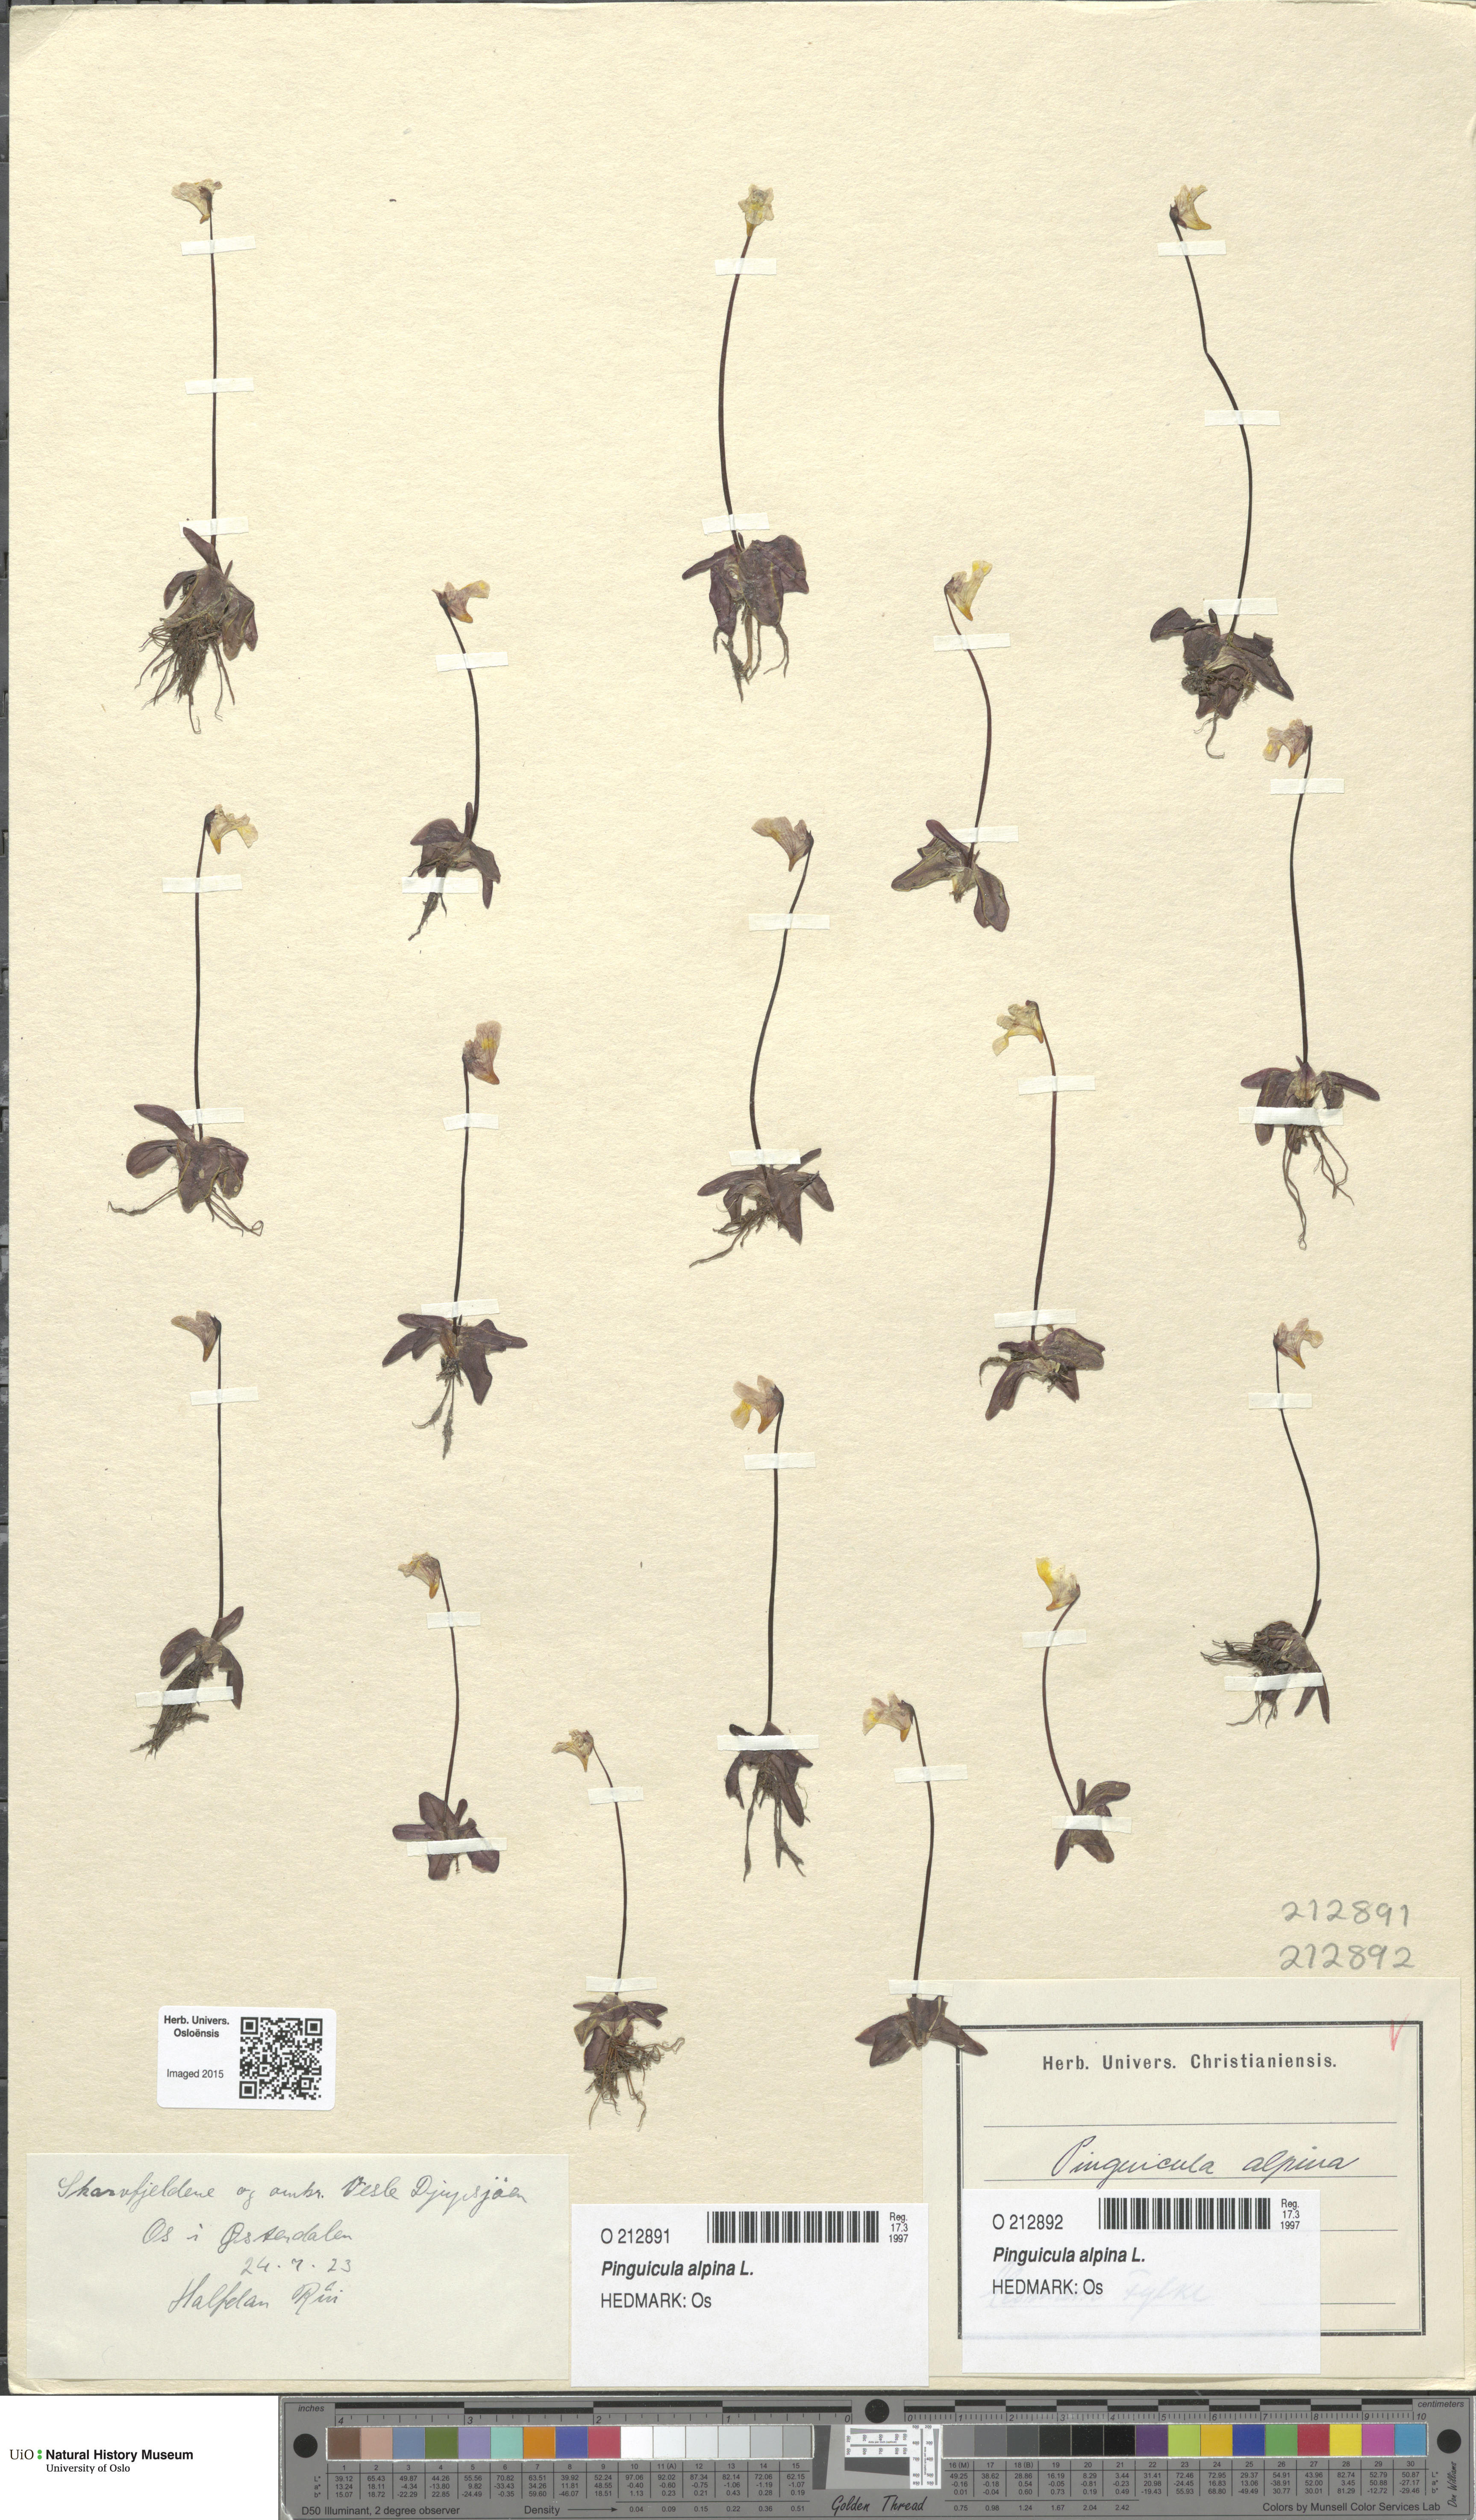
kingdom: Plantae
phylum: Tracheophyta
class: Magnoliopsida
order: Lamiales
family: Lentibulariaceae
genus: Pinguicula
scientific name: Pinguicula alpina
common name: Alpine butterwort
